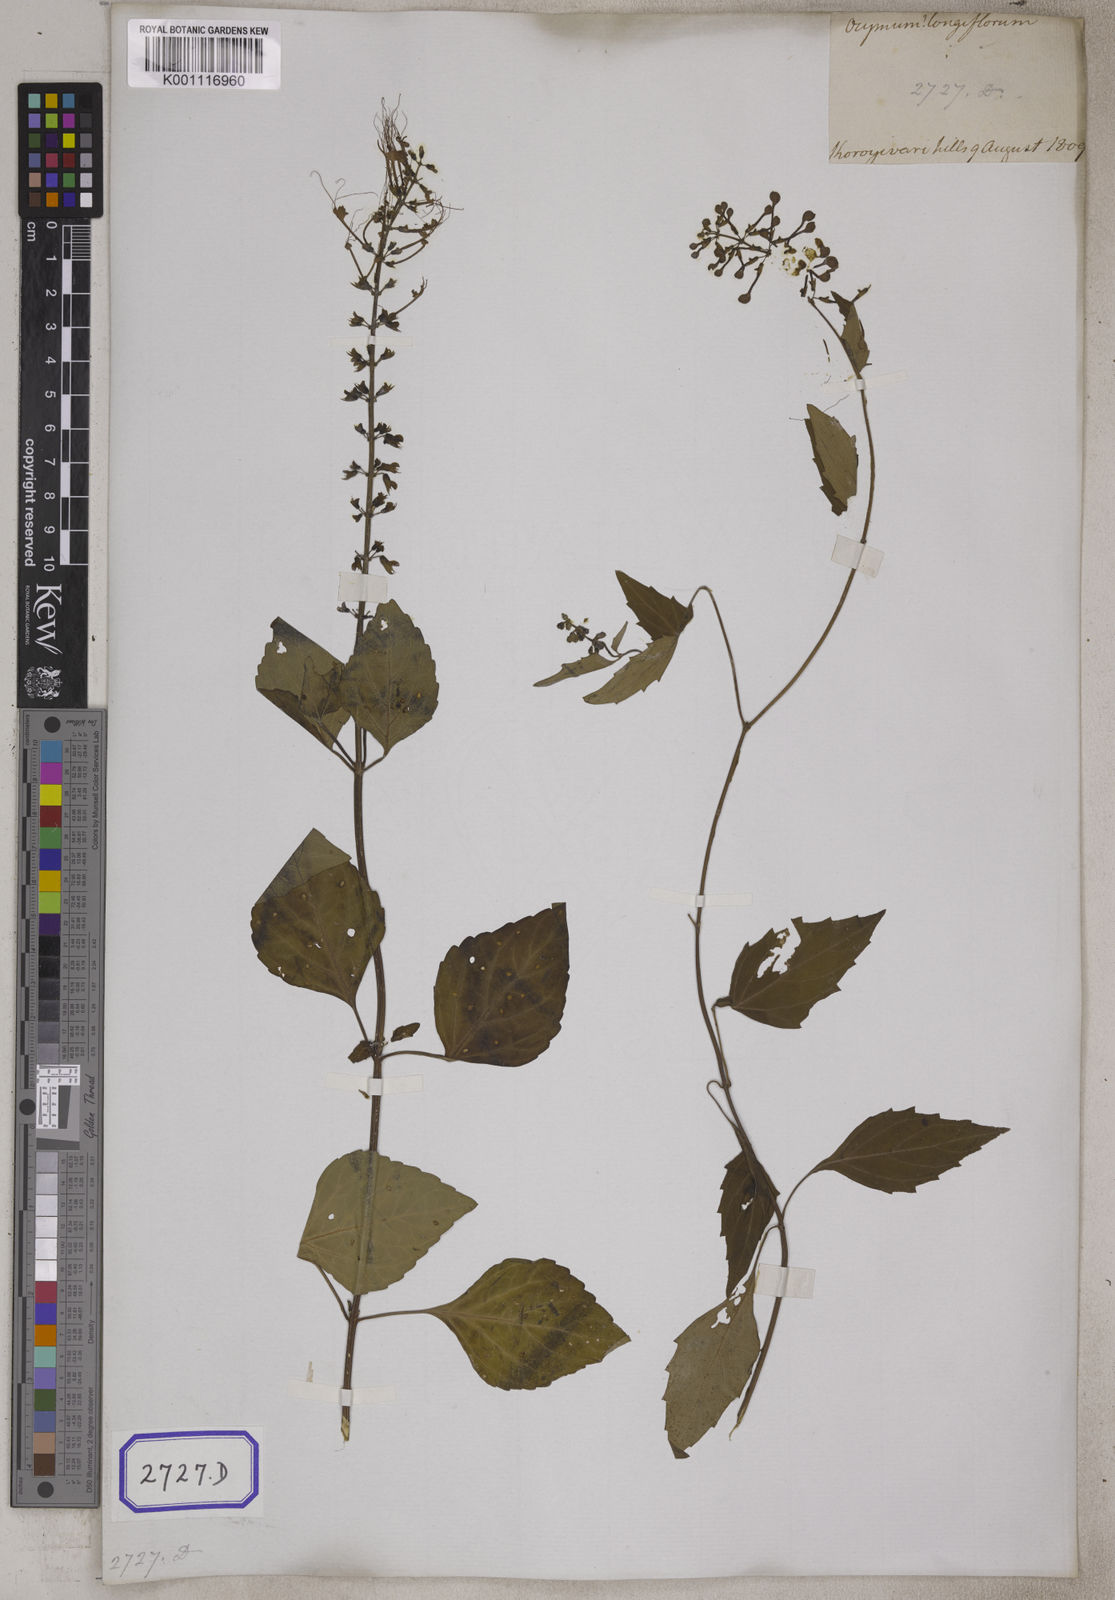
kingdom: Plantae
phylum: Tracheophyta
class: Magnoliopsida
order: Lamiales
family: Lamiaceae
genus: Orthosiphon
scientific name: Orthosiphon aristatus
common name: Whiskerplant
